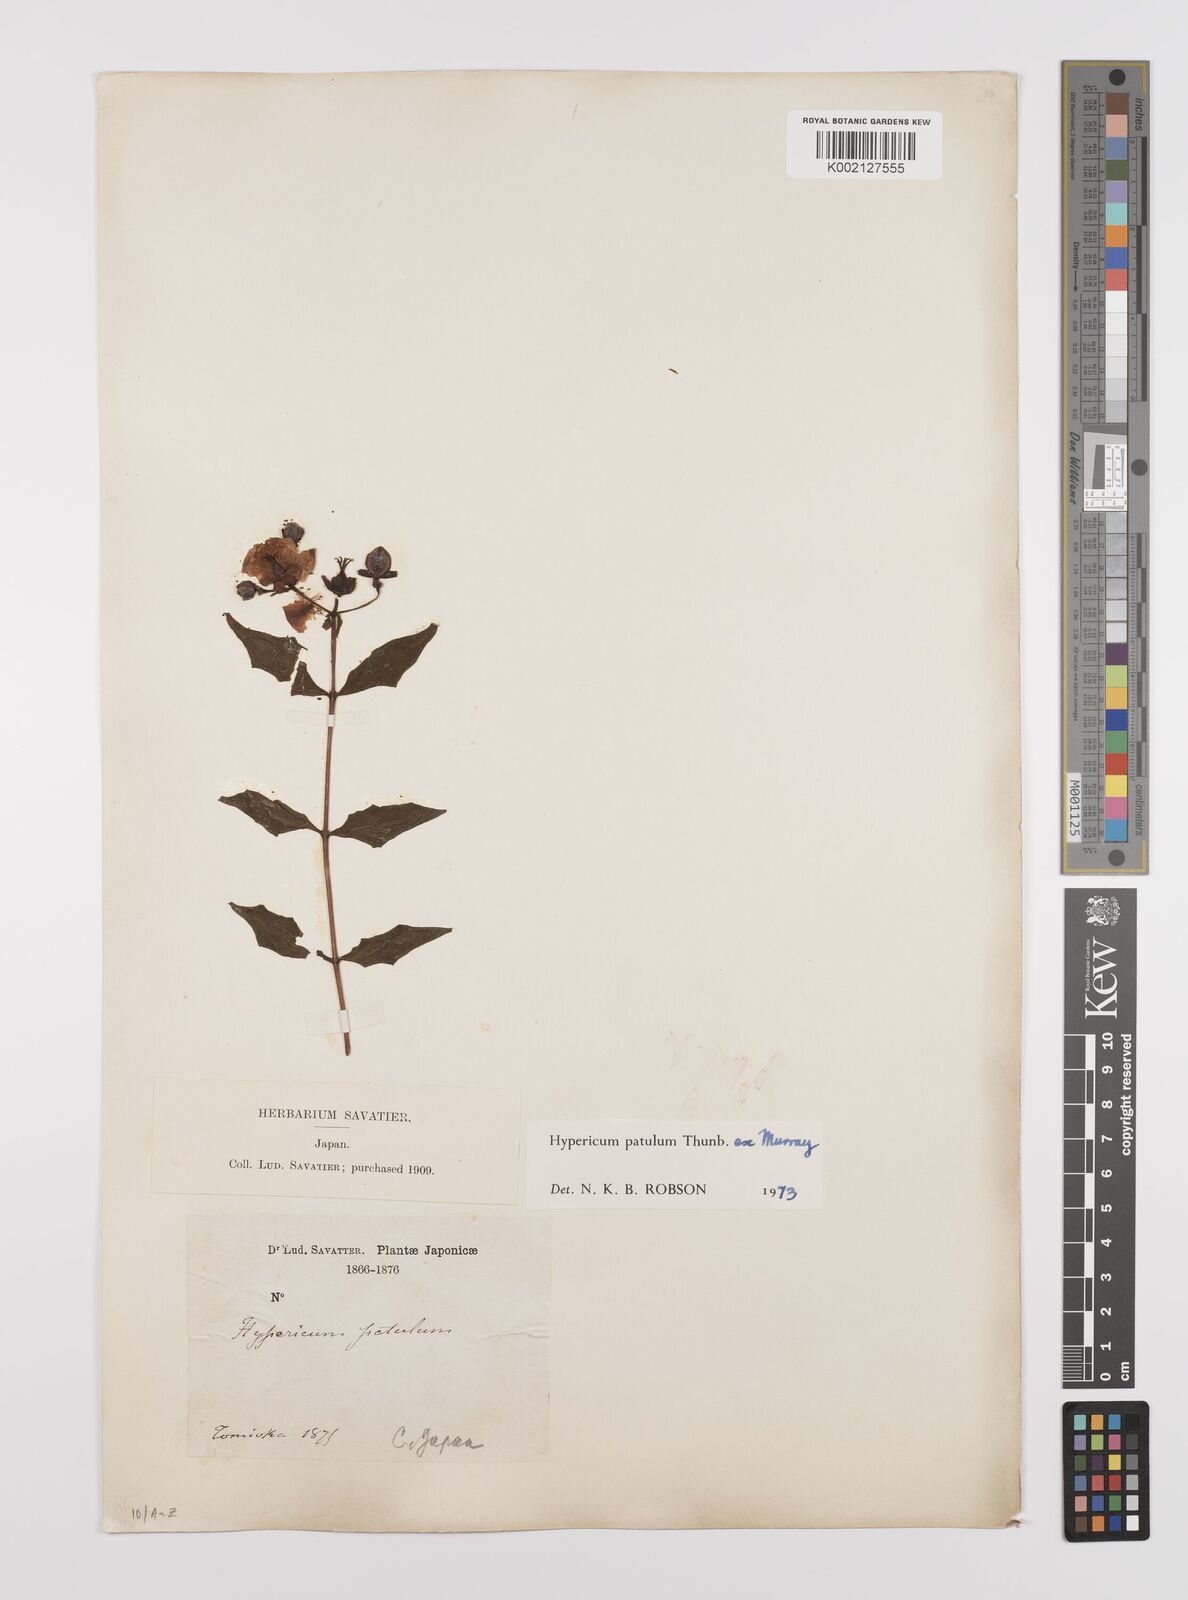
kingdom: Plantae
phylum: Tracheophyta
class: Magnoliopsida
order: Malpighiales
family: Hypericaceae
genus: Hypericum
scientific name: Hypericum patulum
